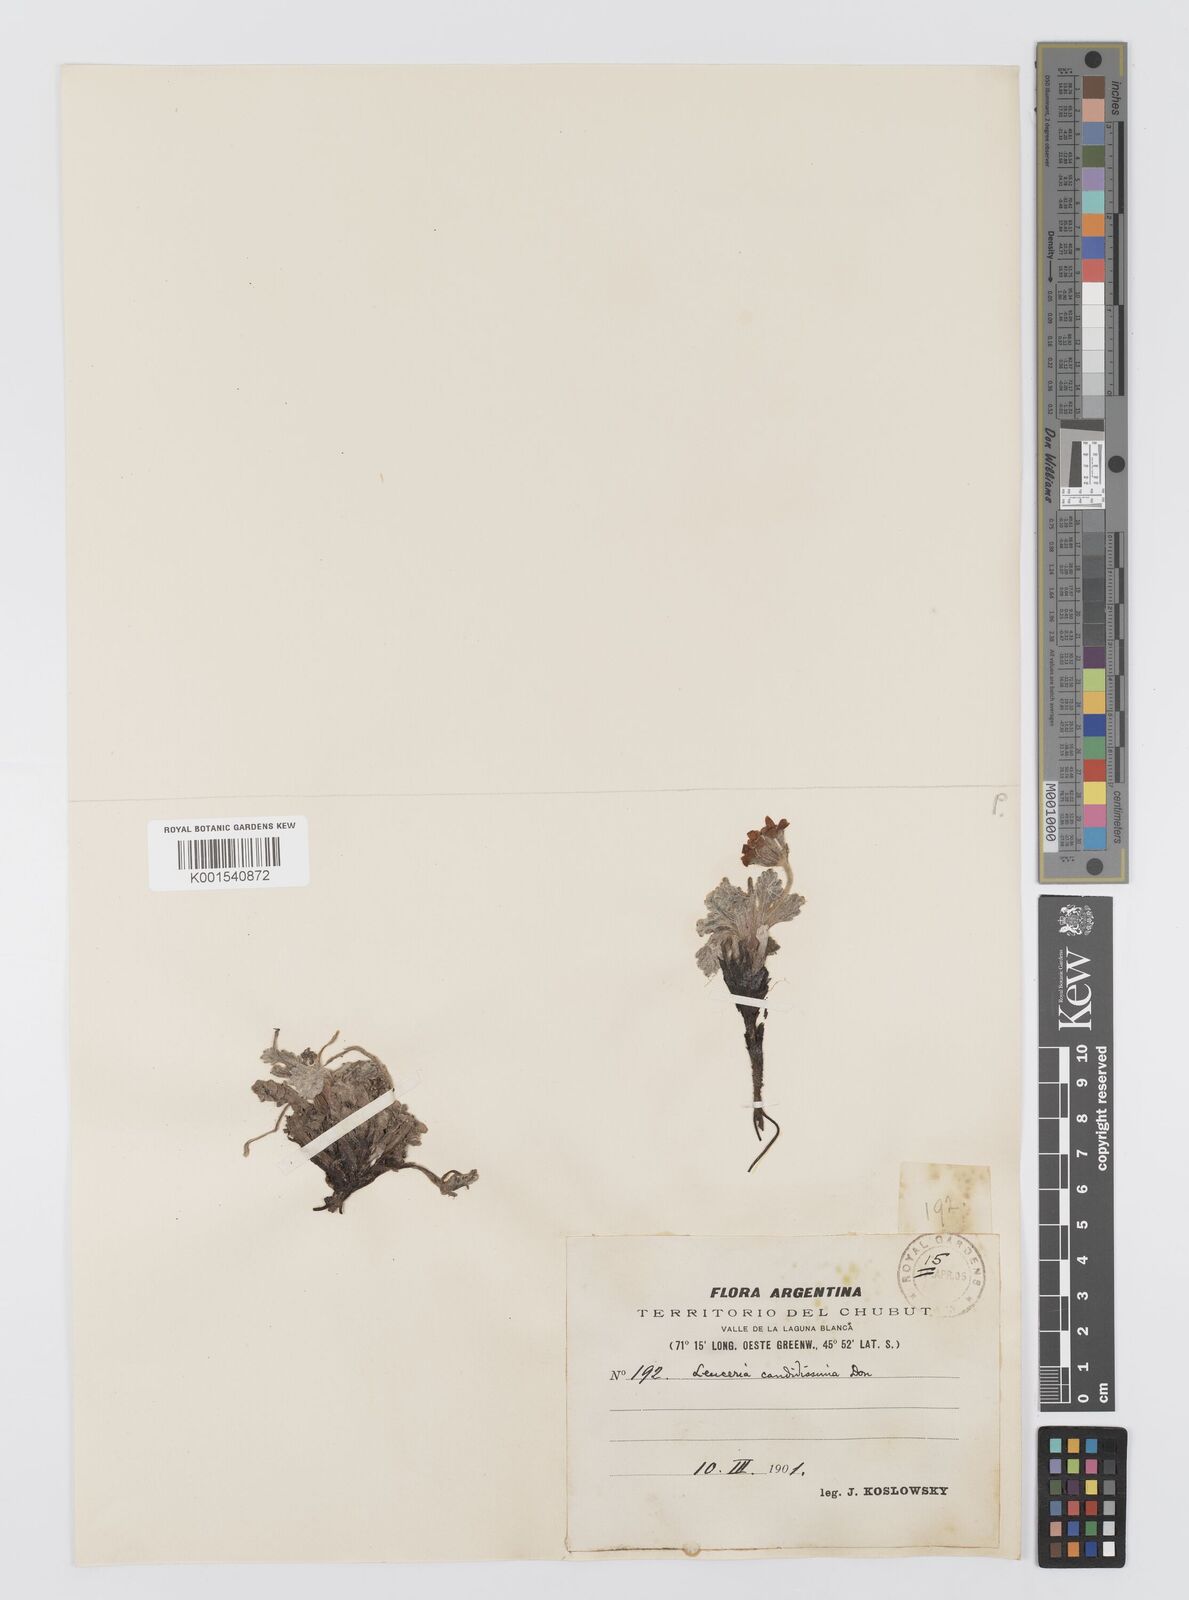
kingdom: Plantae
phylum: Tracheophyta
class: Magnoliopsida
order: Asterales
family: Asteraceae
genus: Leucheria
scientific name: Leucheria candidissima
